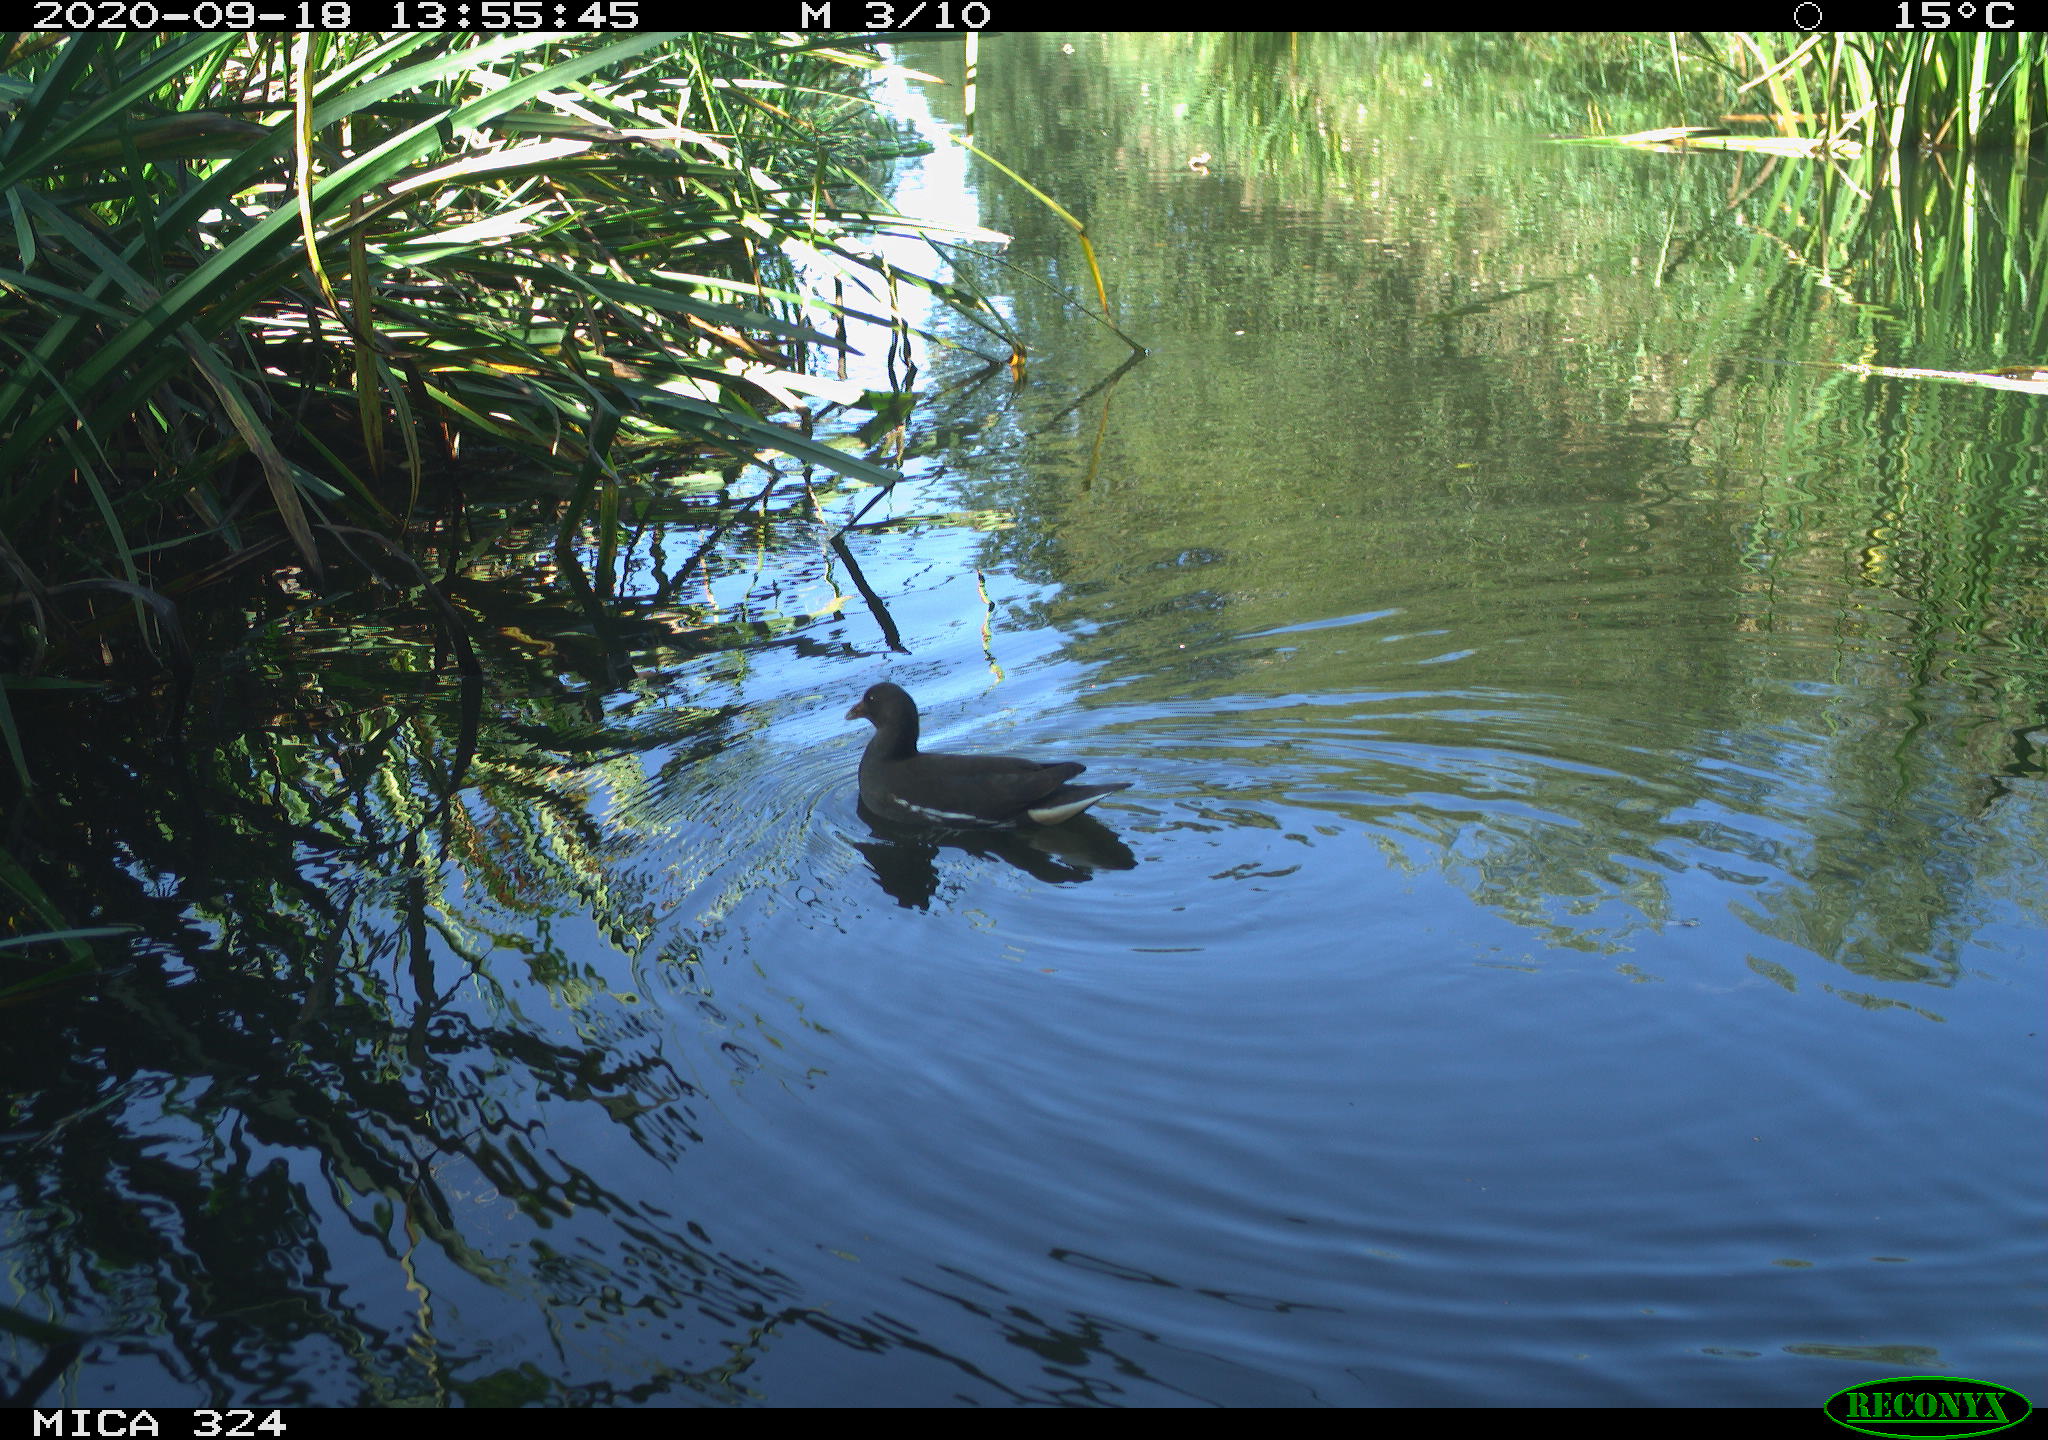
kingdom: Animalia
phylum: Chordata
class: Aves
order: Gruiformes
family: Rallidae
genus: Gallinula
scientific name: Gallinula chloropus
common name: Common moorhen
